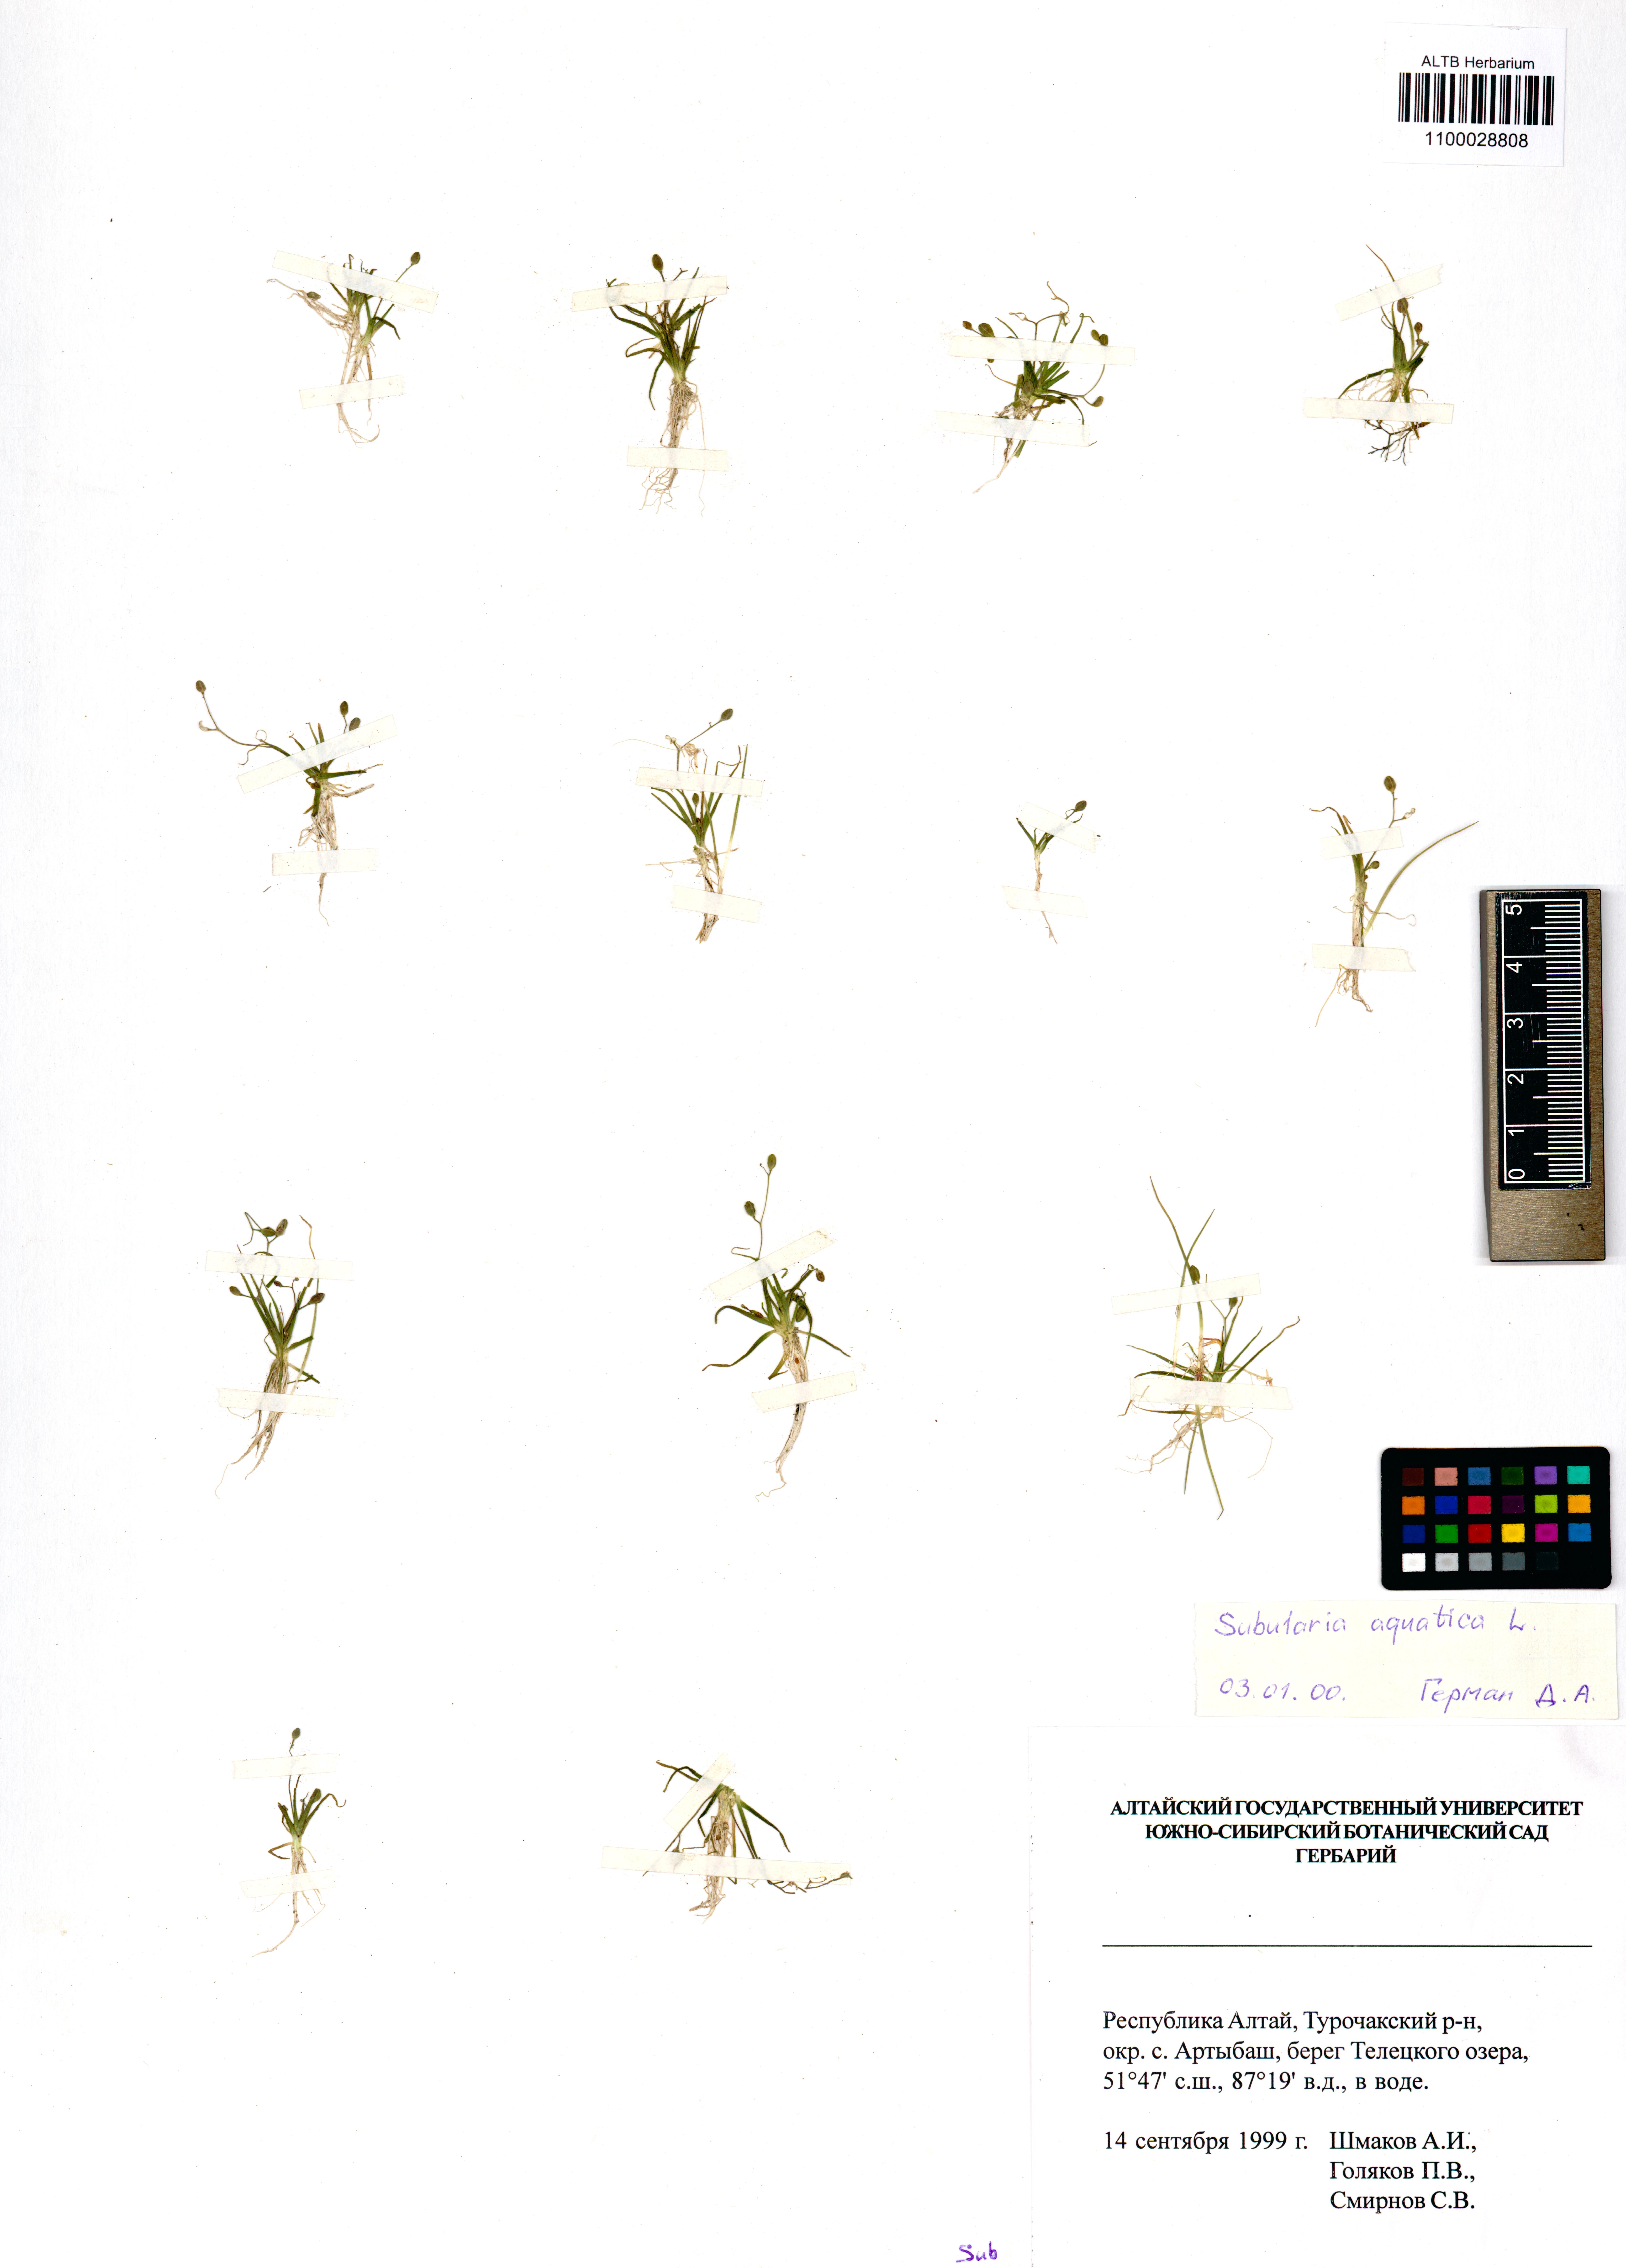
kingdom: Plantae
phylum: Tracheophyta
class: Magnoliopsida
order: Brassicales
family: Brassicaceae
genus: Subularia
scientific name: Subularia aquatica
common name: Awlwort
